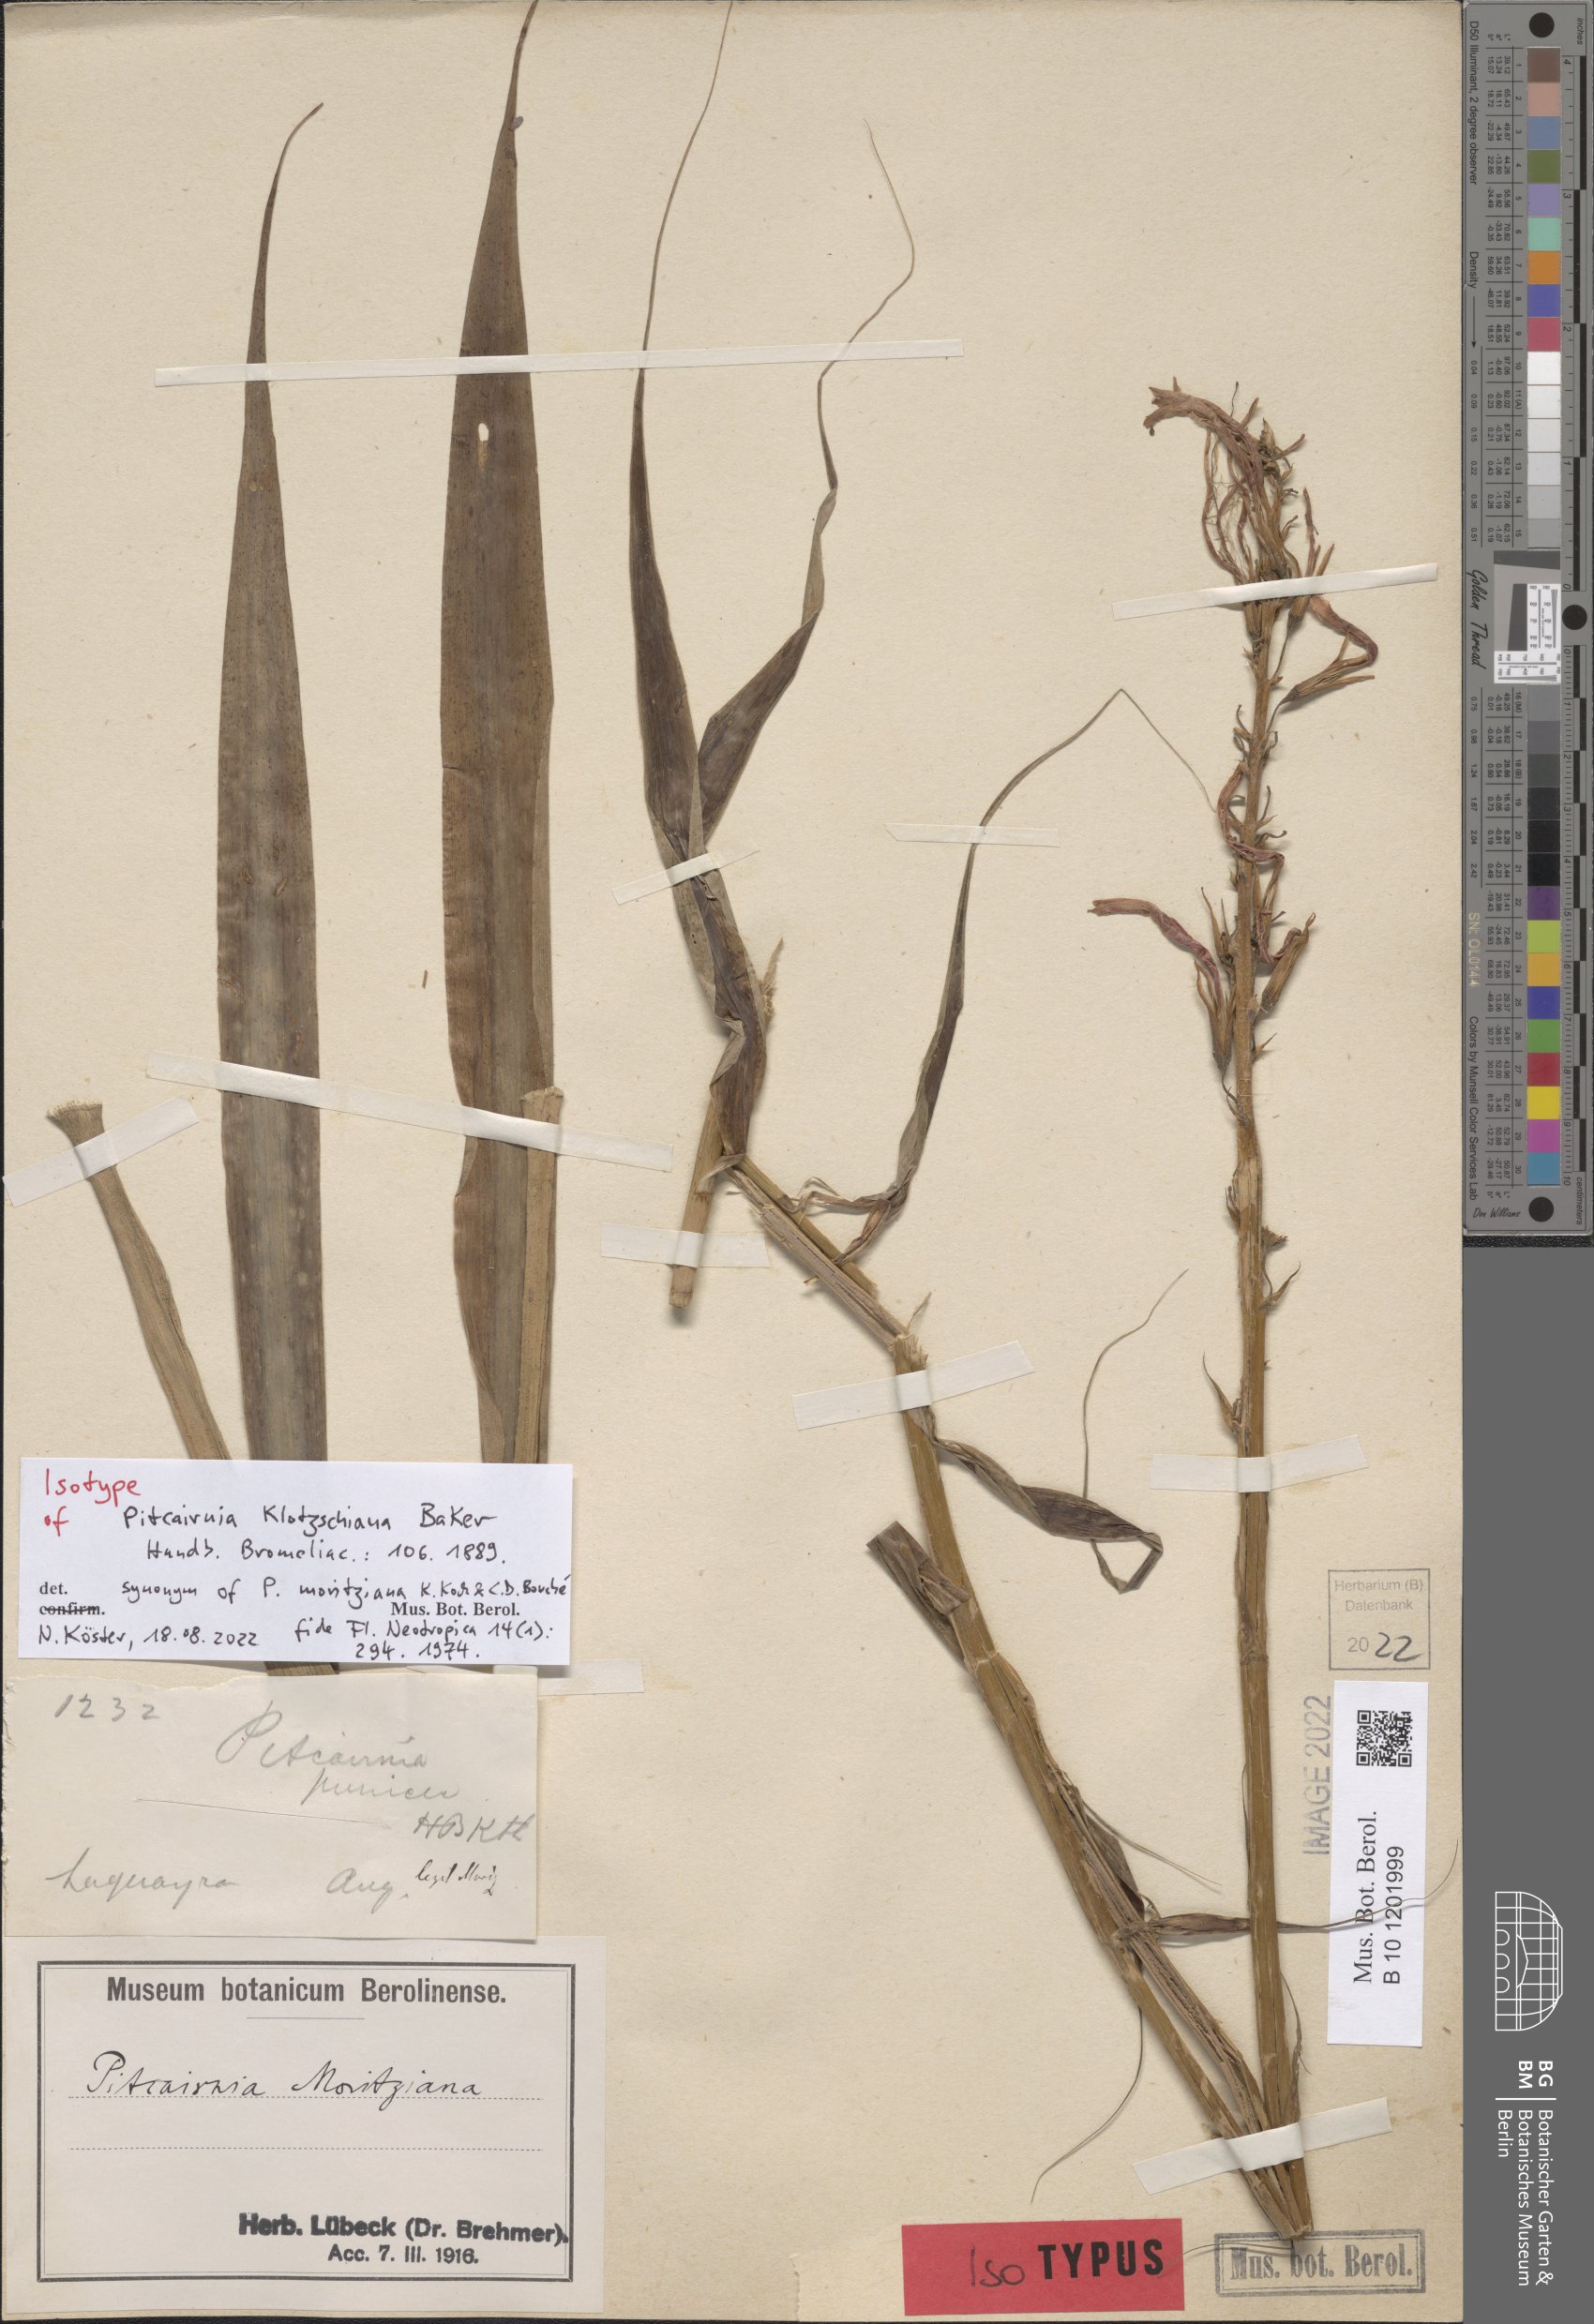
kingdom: Plantae
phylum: Tracheophyta
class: Liliopsida
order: Poales
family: Bromeliaceae
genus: Pitcairnia
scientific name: Pitcairnia moritziana
